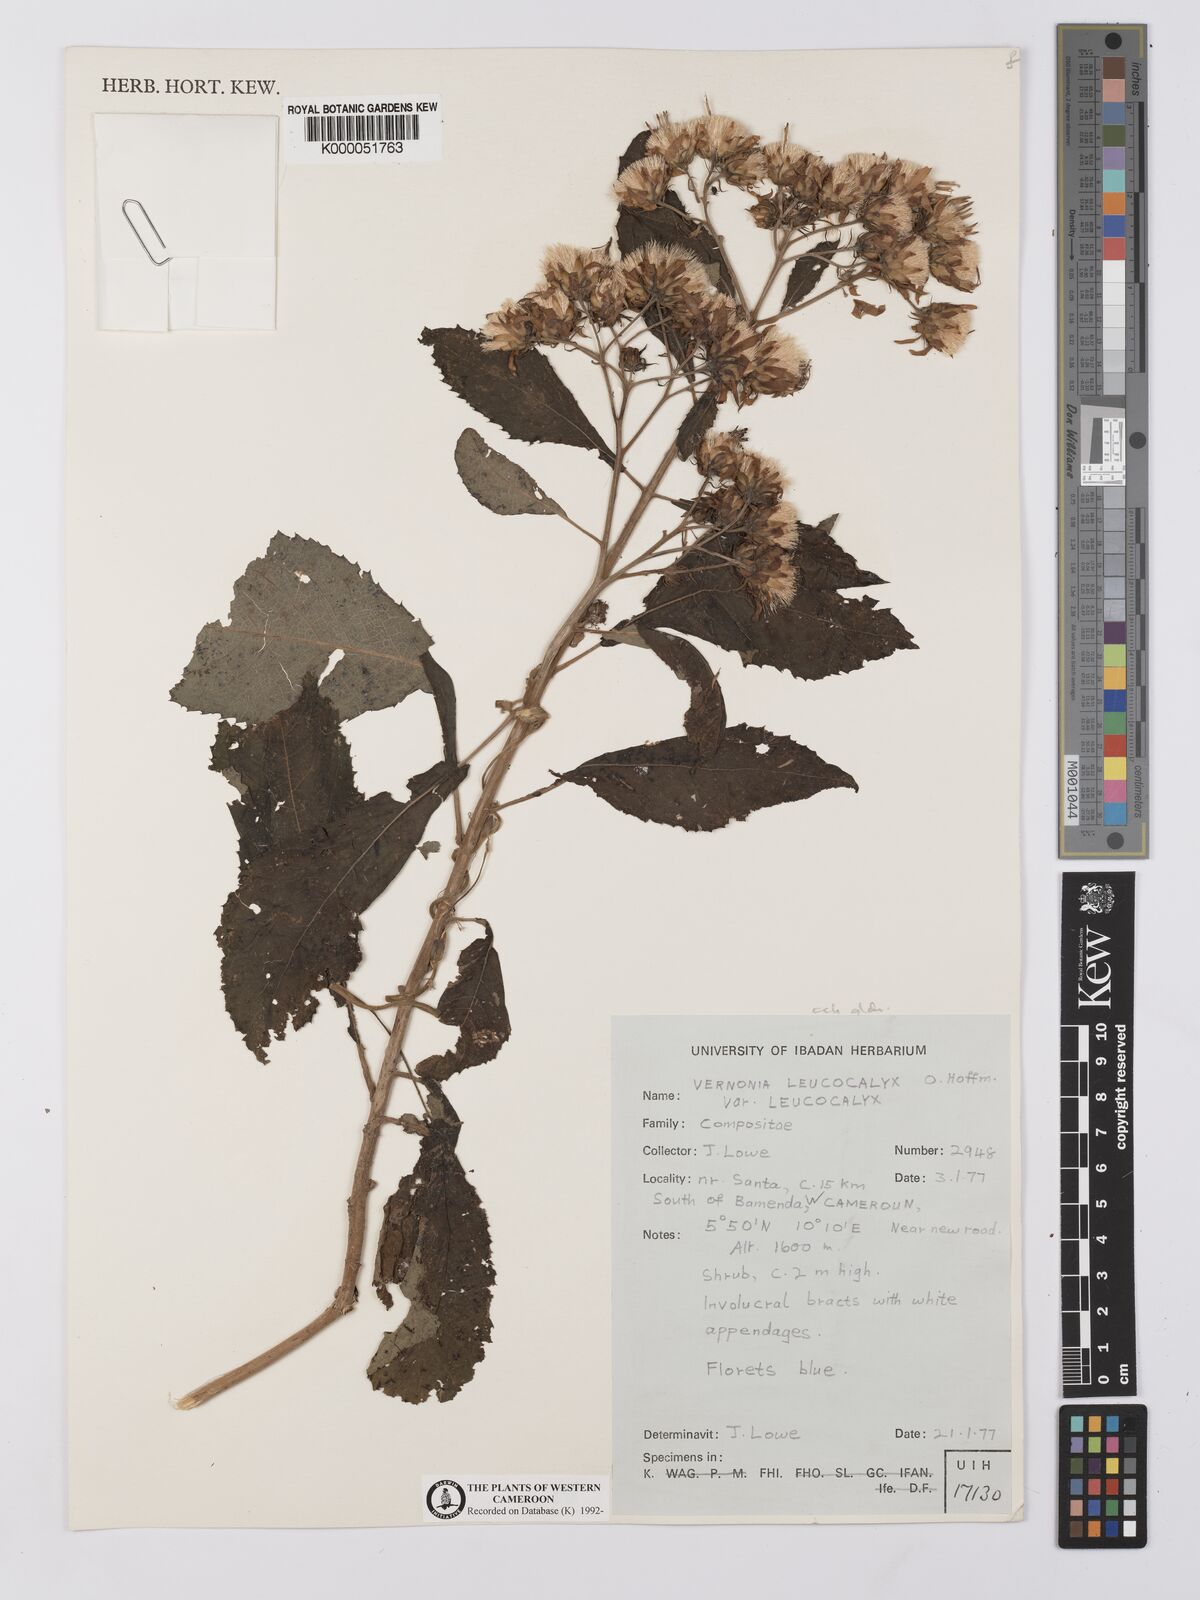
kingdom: Plantae
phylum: Tracheophyta
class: Magnoliopsida
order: Asterales
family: Asteraceae
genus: Baccharoides
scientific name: Baccharoides calvoana
